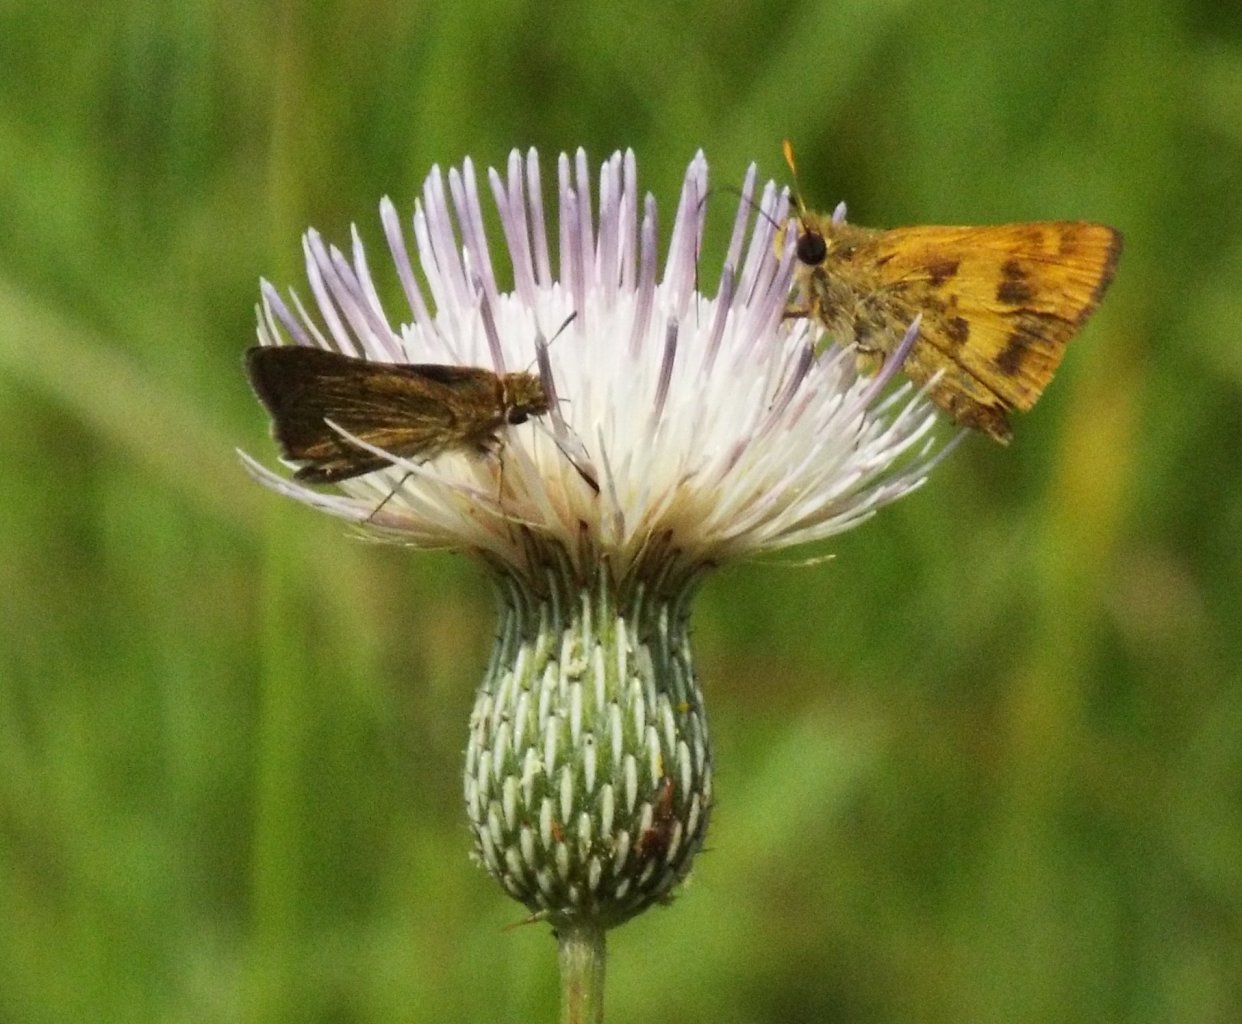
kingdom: Animalia
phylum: Arthropoda
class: Insecta
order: Lepidoptera
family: Hesperiidae
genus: Polites
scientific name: Polites vibex
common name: Whirlabout
